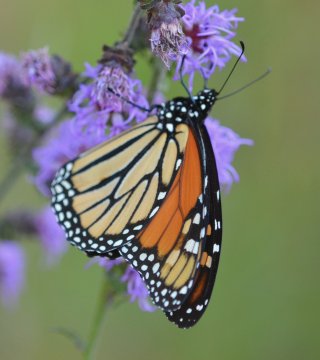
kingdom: Animalia
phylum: Arthropoda
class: Insecta
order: Lepidoptera
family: Nymphalidae
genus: Danaus
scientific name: Danaus plexippus
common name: Monarch
